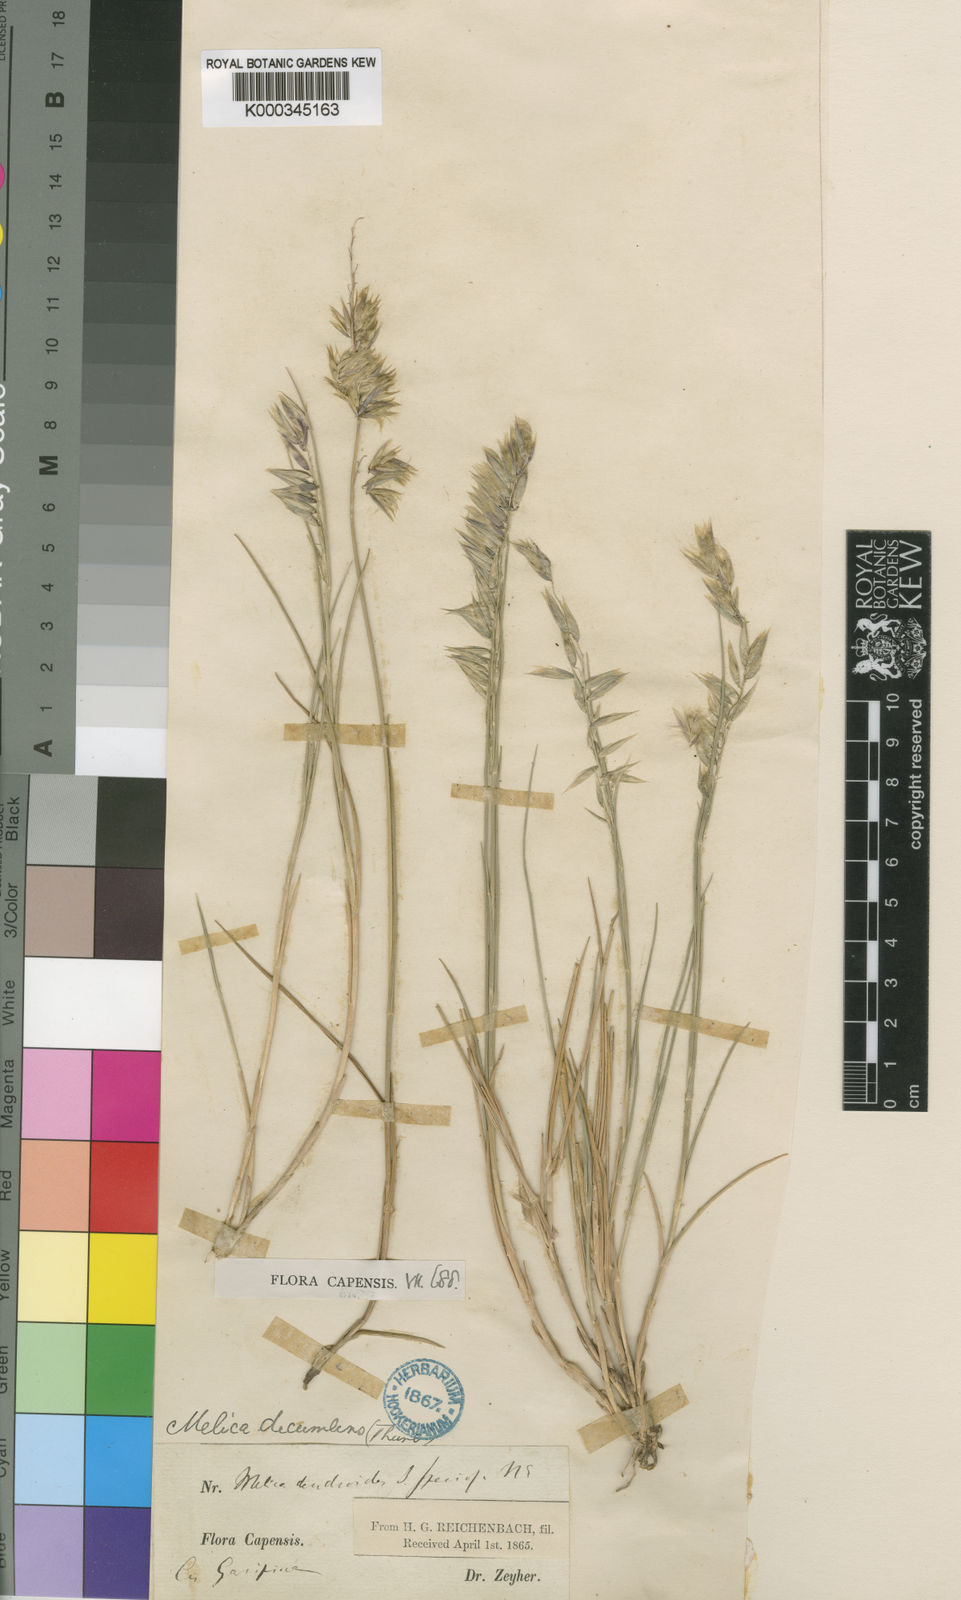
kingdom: Plantae
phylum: Tracheophyta
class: Liliopsida
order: Poales
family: Poaceae
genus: Melica
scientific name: Melica dendroides
